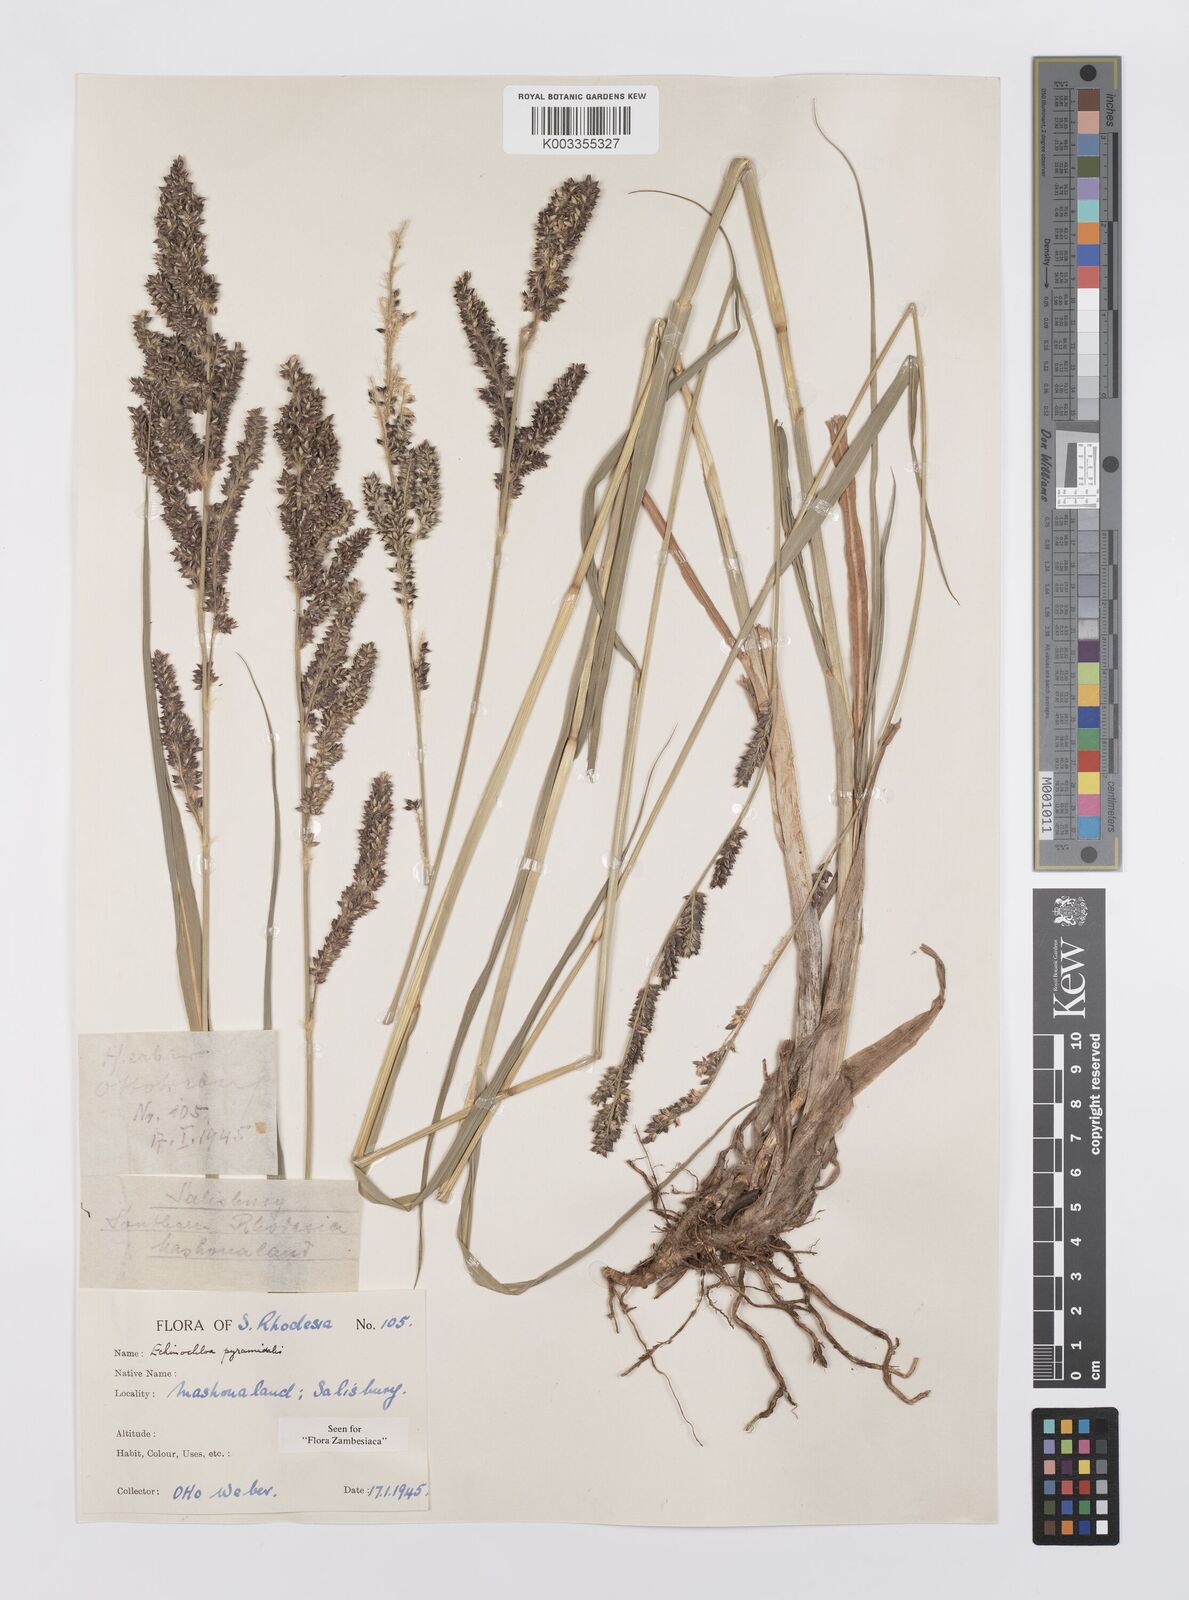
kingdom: Plantae
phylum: Tracheophyta
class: Liliopsida
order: Poales
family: Poaceae
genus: Echinochloa
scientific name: Echinochloa pyramidalis
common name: Antelope grass
